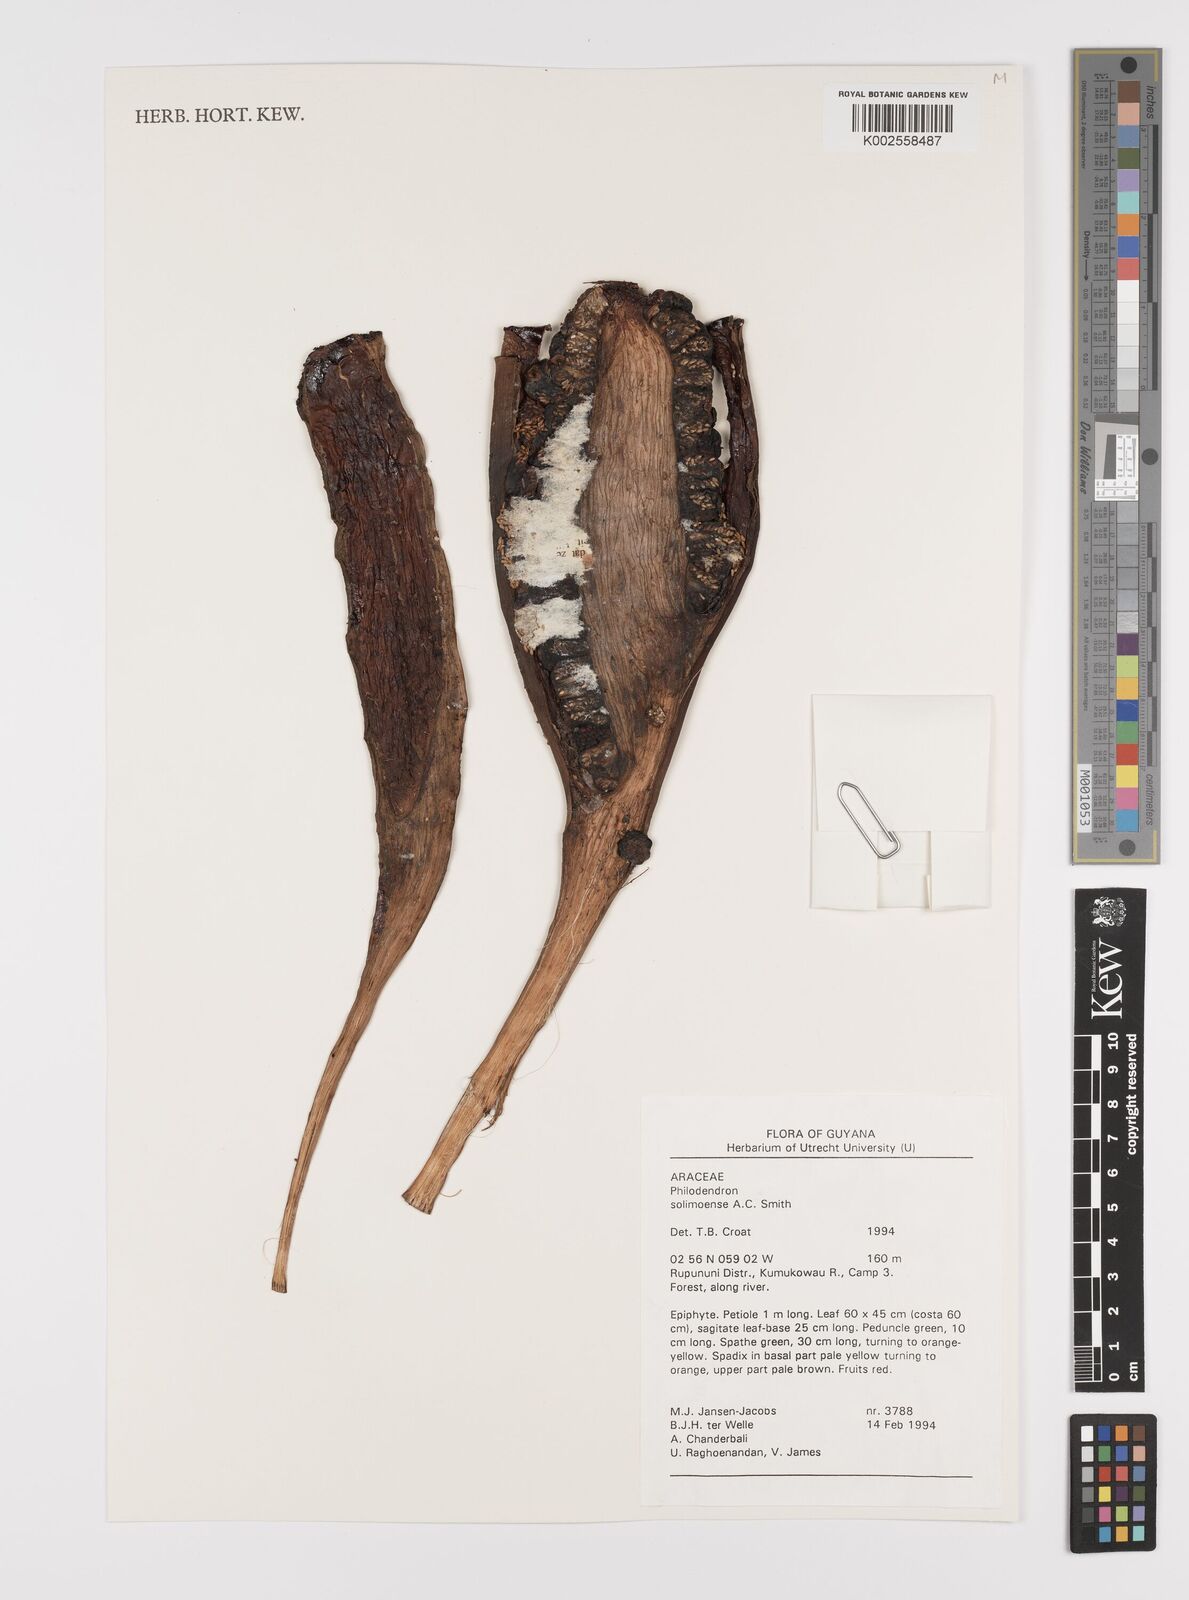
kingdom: Plantae
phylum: Tracheophyta
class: Liliopsida
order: Alismatales
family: Araceae
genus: Thaumatophyllum
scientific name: Thaumatophyllum solimoesense
